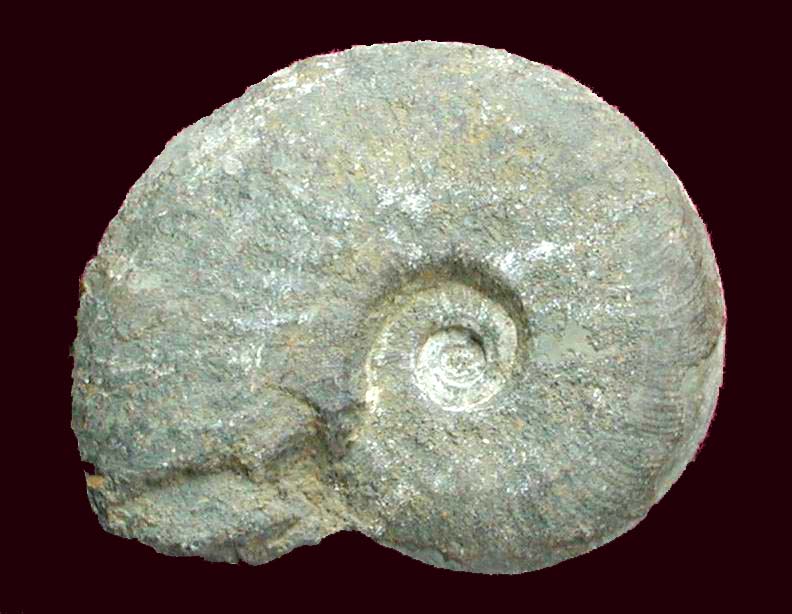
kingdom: Animalia
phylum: Mollusca
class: Cephalopoda
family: Hildoceratidae
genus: Pleydellia
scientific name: Pleydellia buckmani
